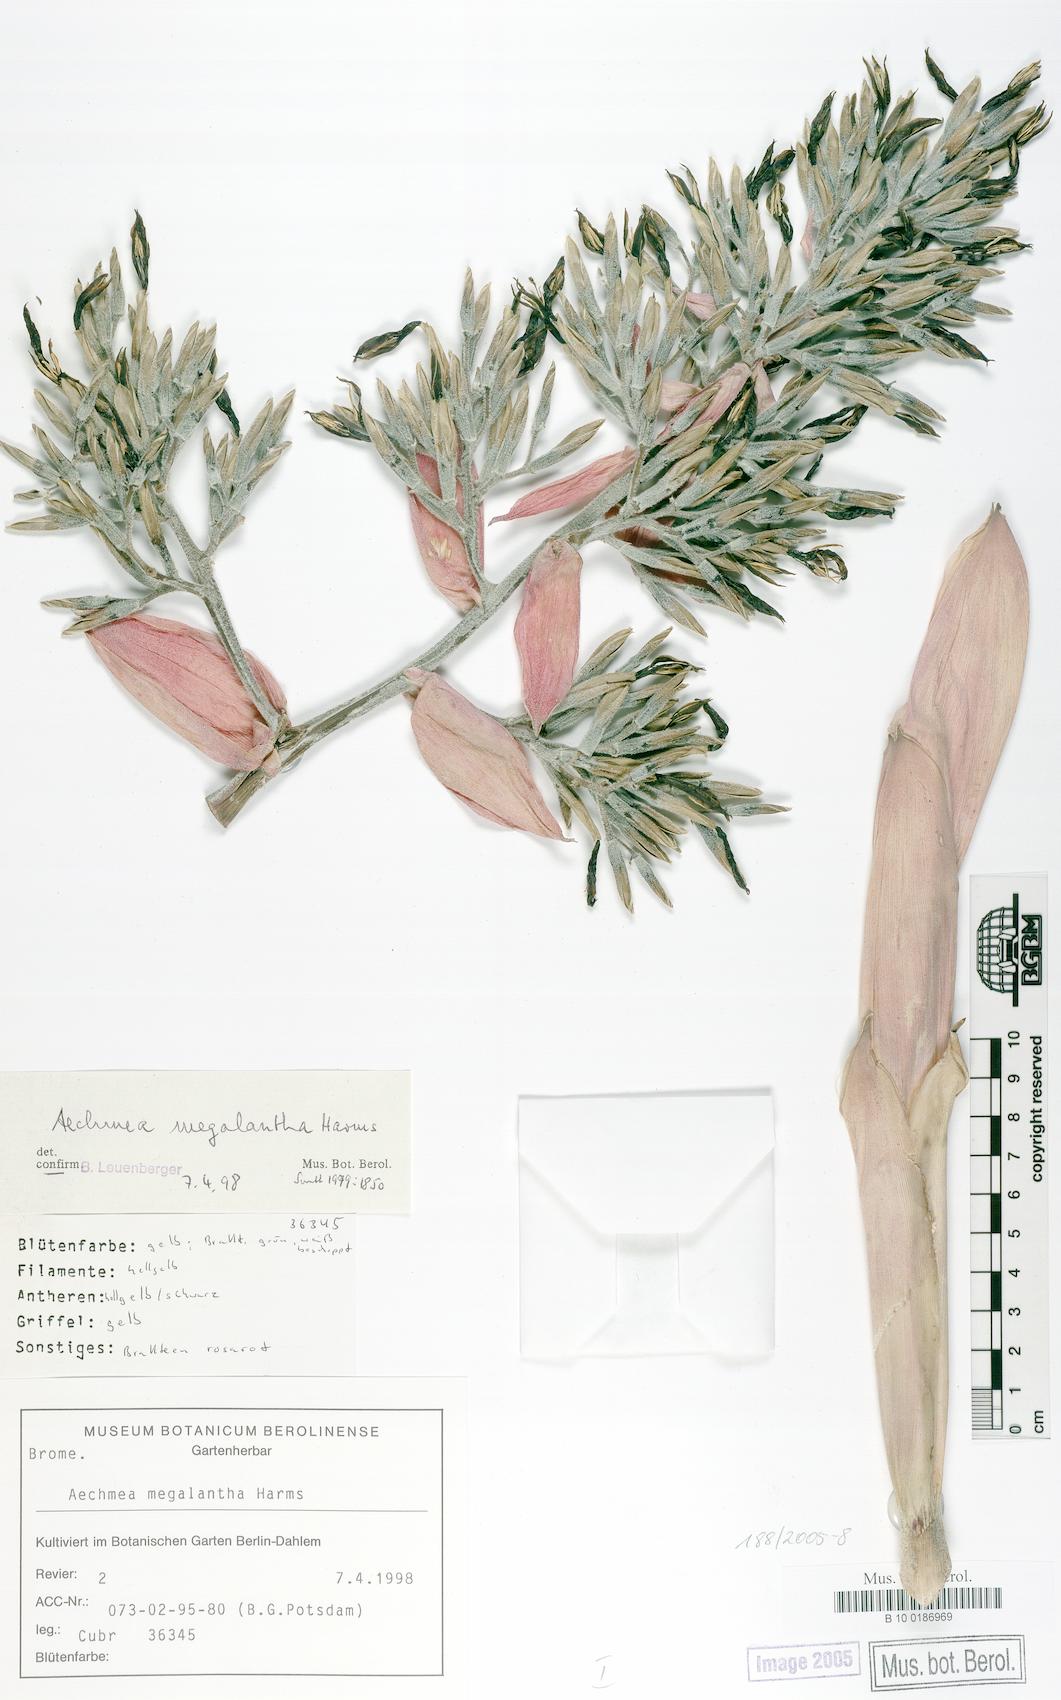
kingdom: Plantae
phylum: Tracheophyta
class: Liliopsida
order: Poales
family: Bromeliaceae
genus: Aechmea
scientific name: Aechmea costantinii
